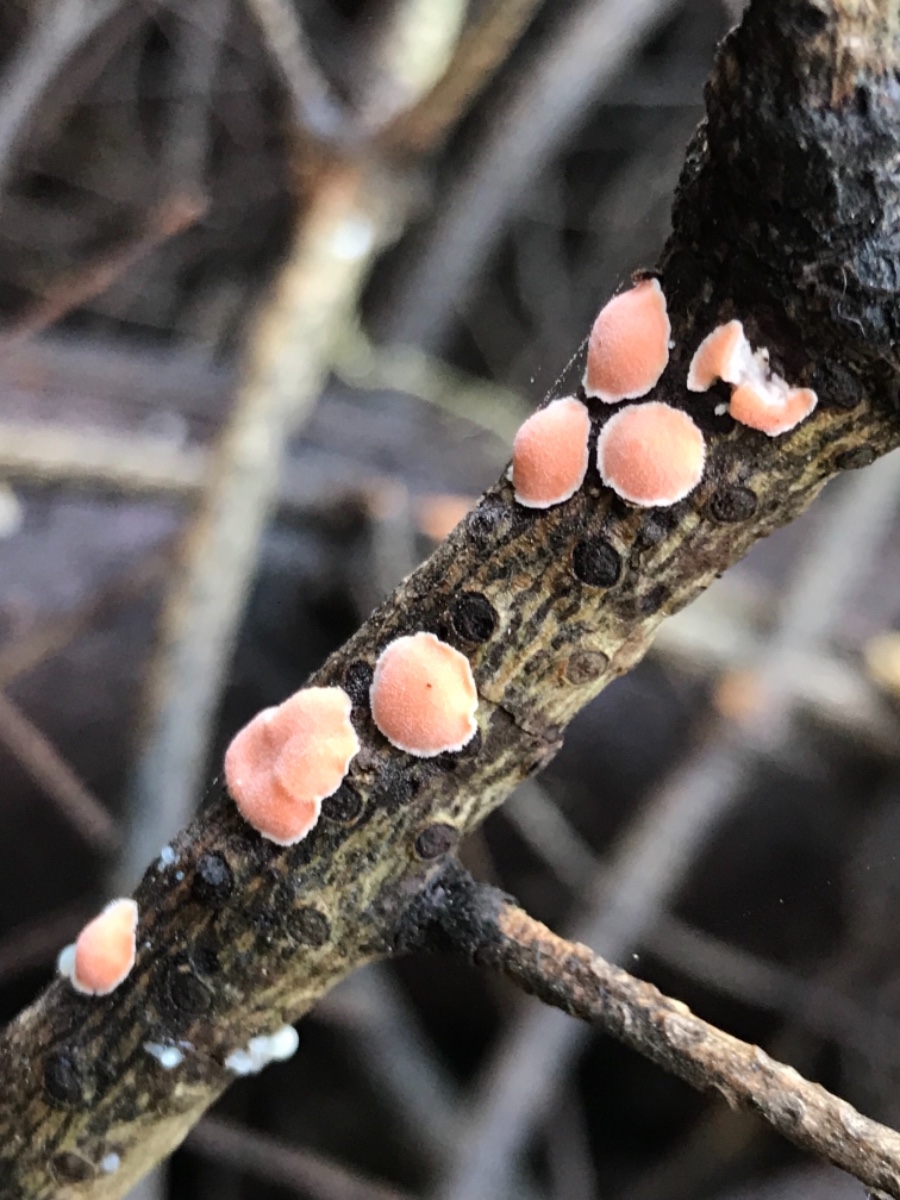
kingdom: Fungi
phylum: Basidiomycota
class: Agaricomycetes
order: Russulales
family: Stereaceae
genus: Aleurodiscus
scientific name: Aleurodiscus amorphus
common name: orange skiveskorpe
